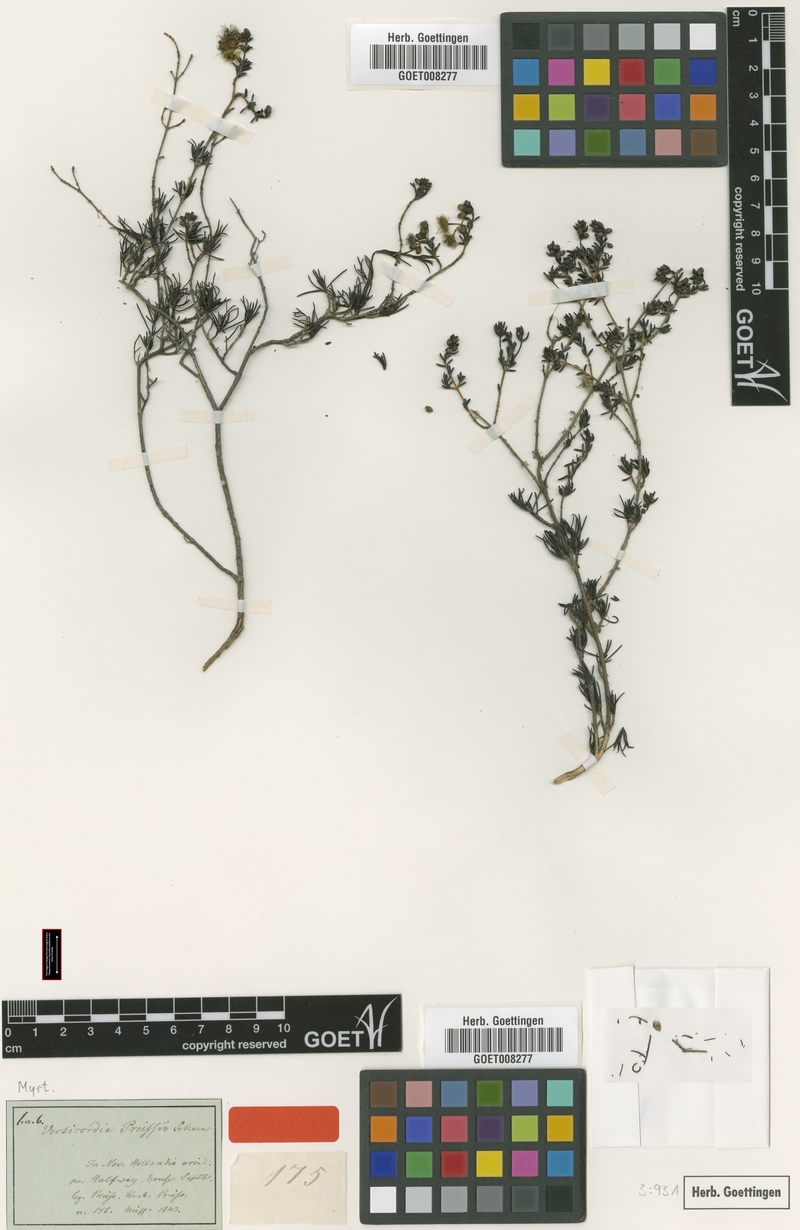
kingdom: Plantae
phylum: Tracheophyta
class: Magnoliopsida
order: Myrtales
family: Myrtaceae
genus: Verticordia
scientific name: Verticordia acerosa
